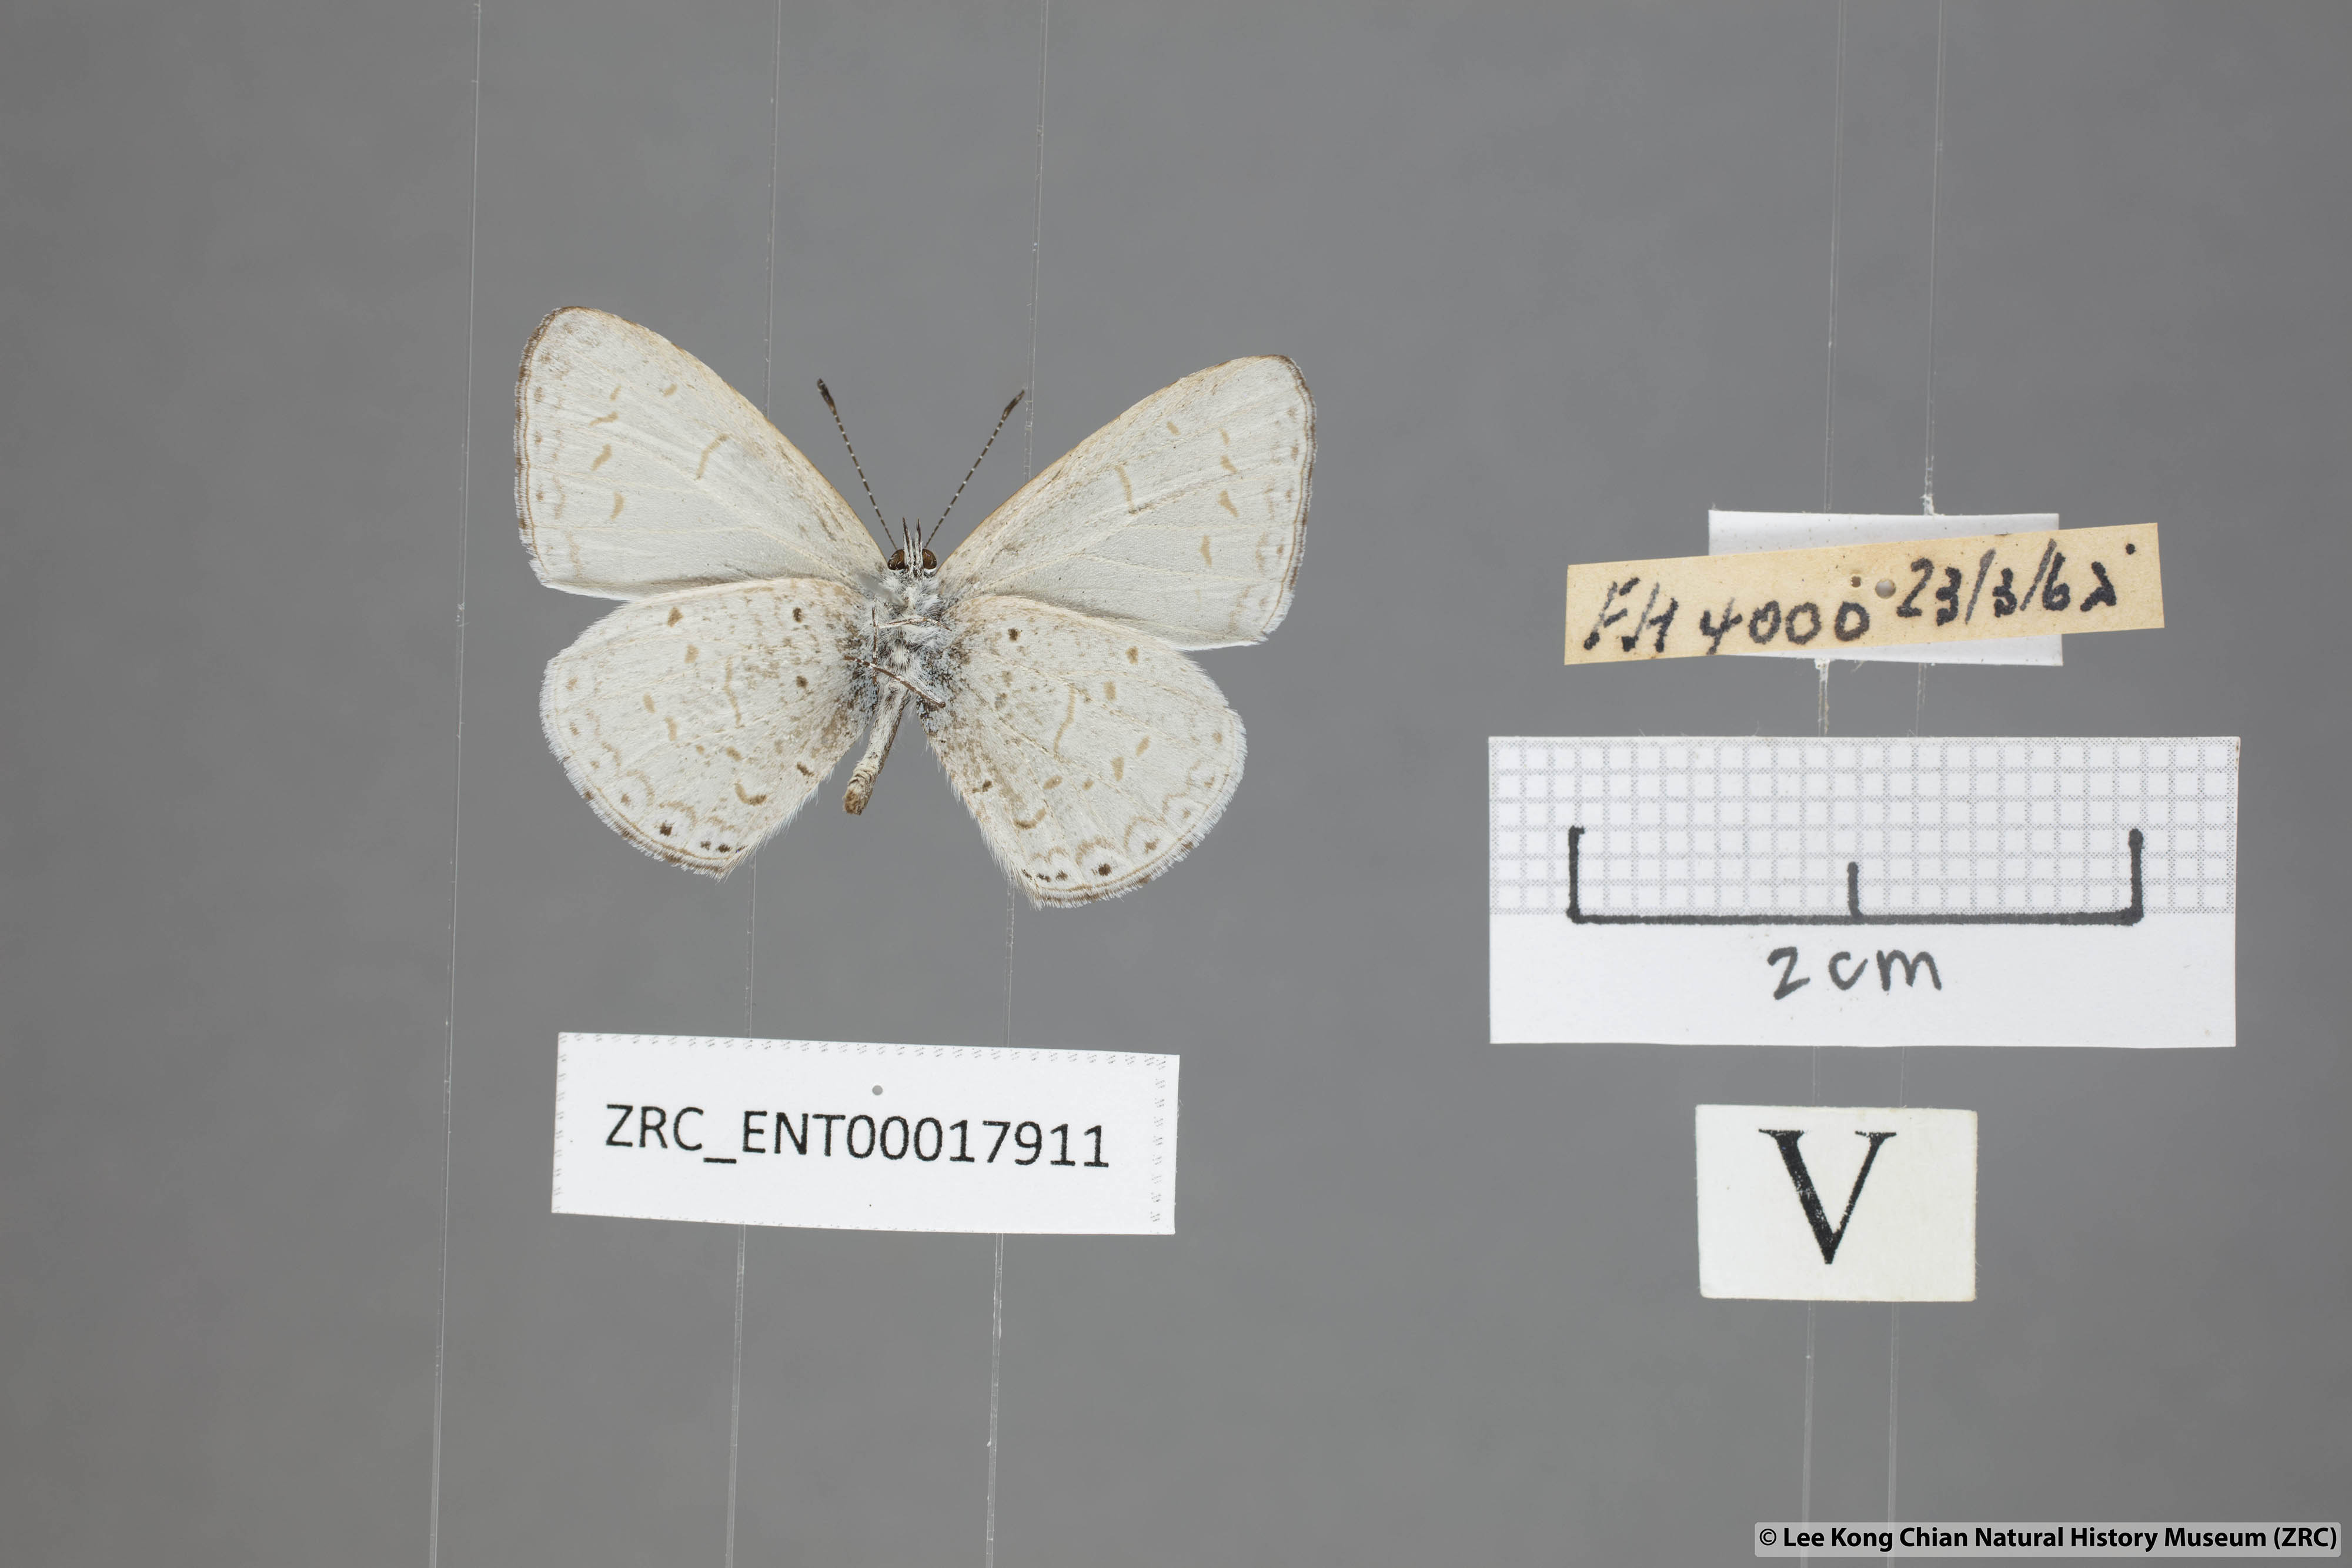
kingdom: Animalia
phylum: Arthropoda
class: Insecta
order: Lepidoptera
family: Lycaenidae
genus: Udara
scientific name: Udara
